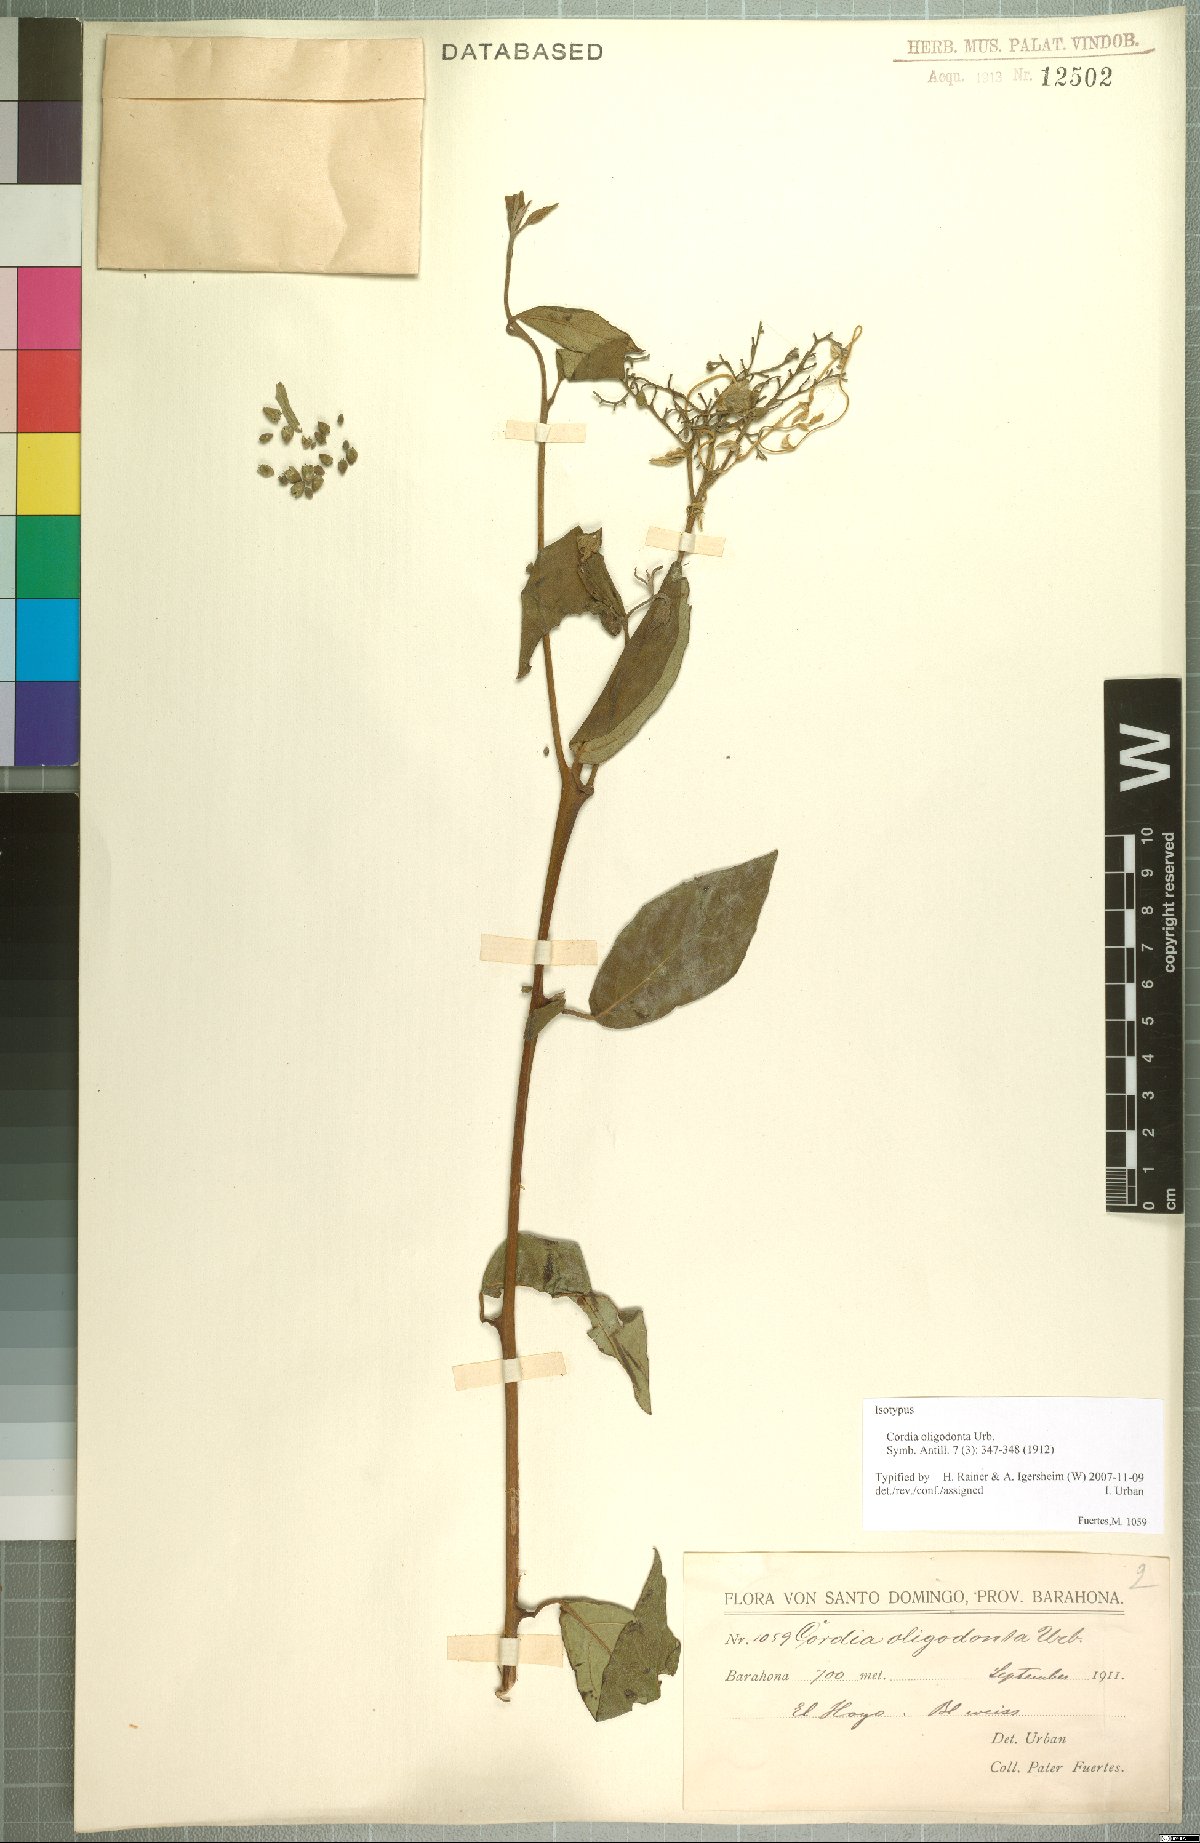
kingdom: Plantae
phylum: Tracheophyta
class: Magnoliopsida
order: Boraginales
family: Cordiaceae
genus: Varronia
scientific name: Varronia oligodonta
